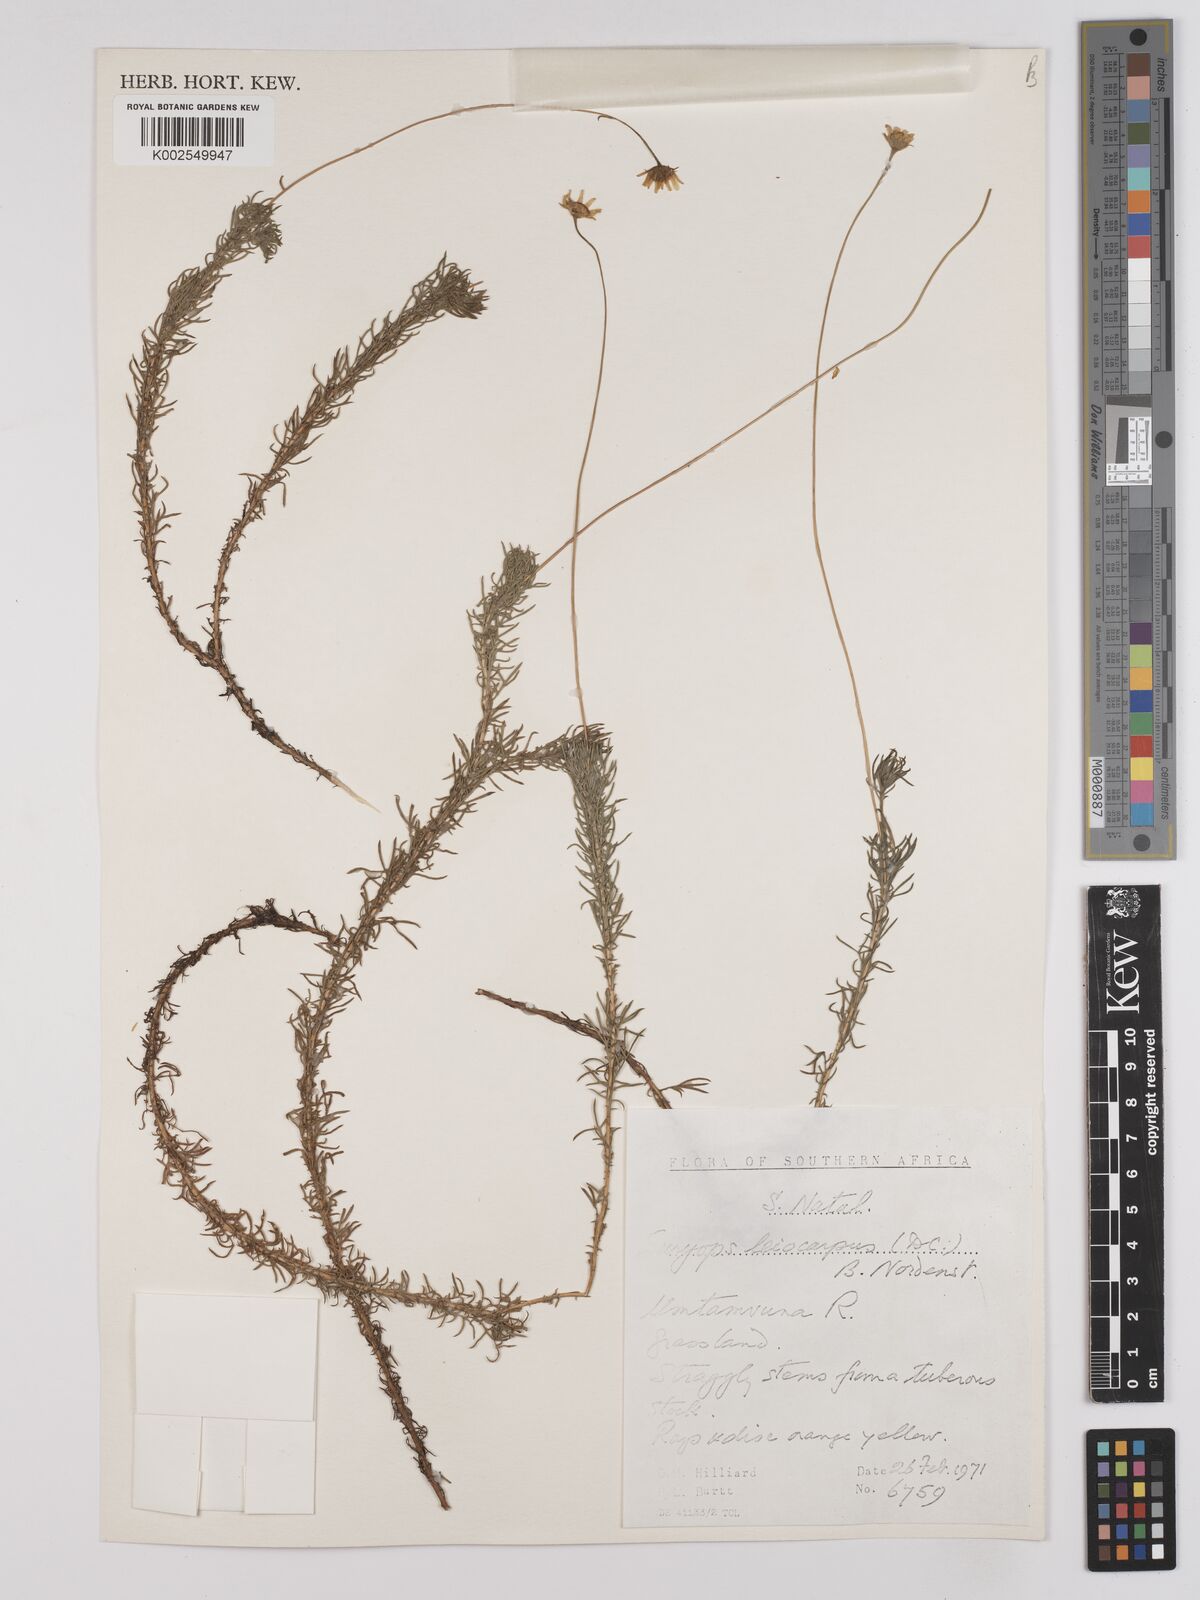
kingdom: Plantae
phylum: Tracheophyta
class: Magnoliopsida
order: Asterales
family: Asteraceae
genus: Euryops
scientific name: Euryops leiocarpus
